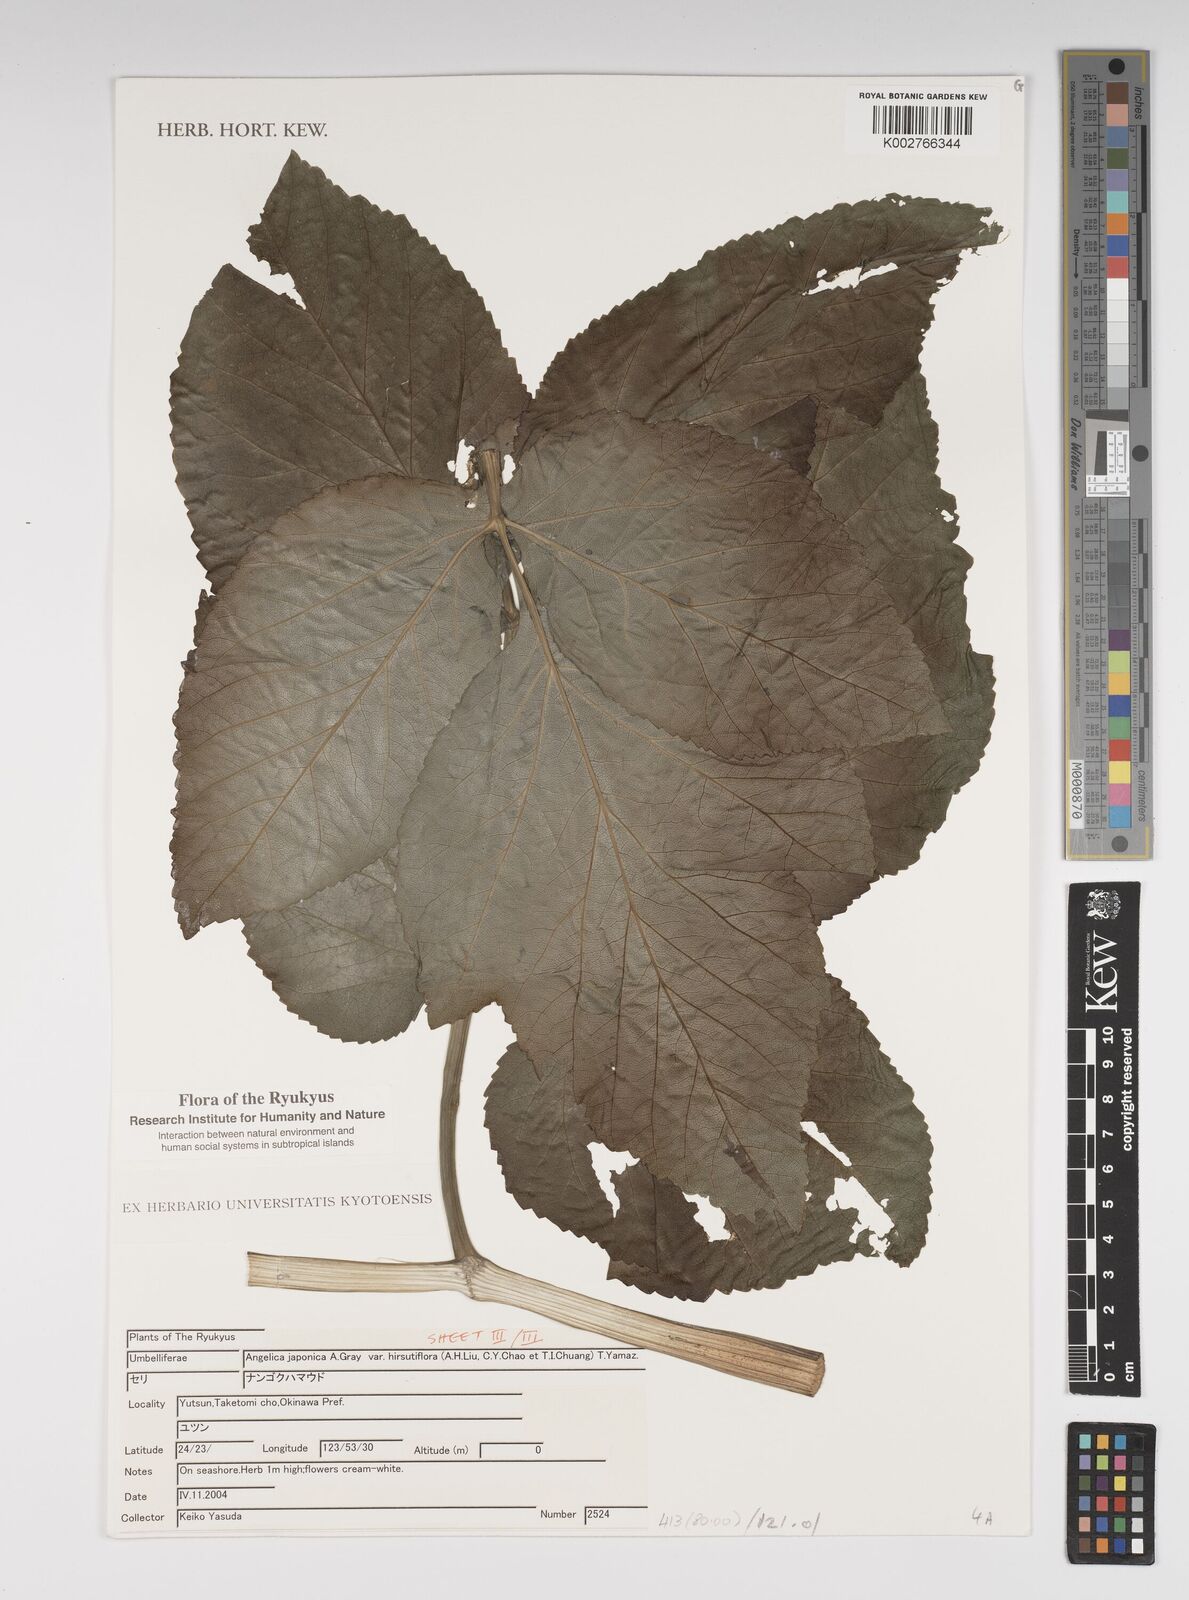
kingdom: Plantae
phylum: Tracheophyta
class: Magnoliopsida
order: Apiales
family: Apiaceae
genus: Angelica
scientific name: Angelica
